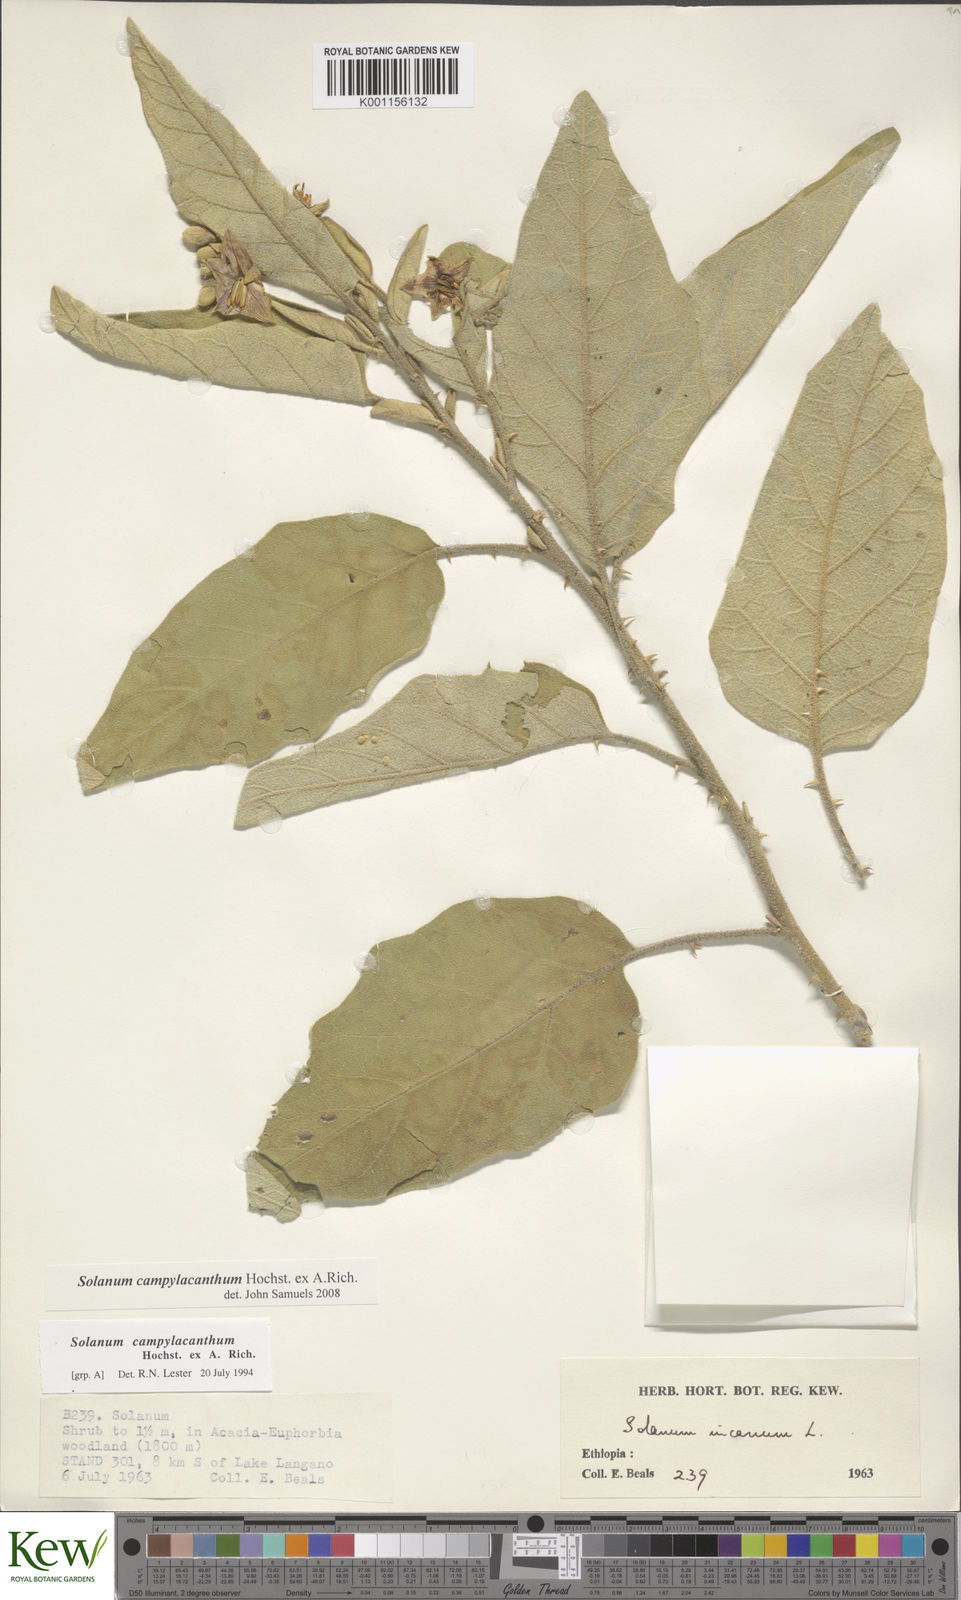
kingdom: Plantae
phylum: Tracheophyta
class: Magnoliopsida
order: Solanales
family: Solanaceae
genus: Solanum
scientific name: Solanum campylacanthum
